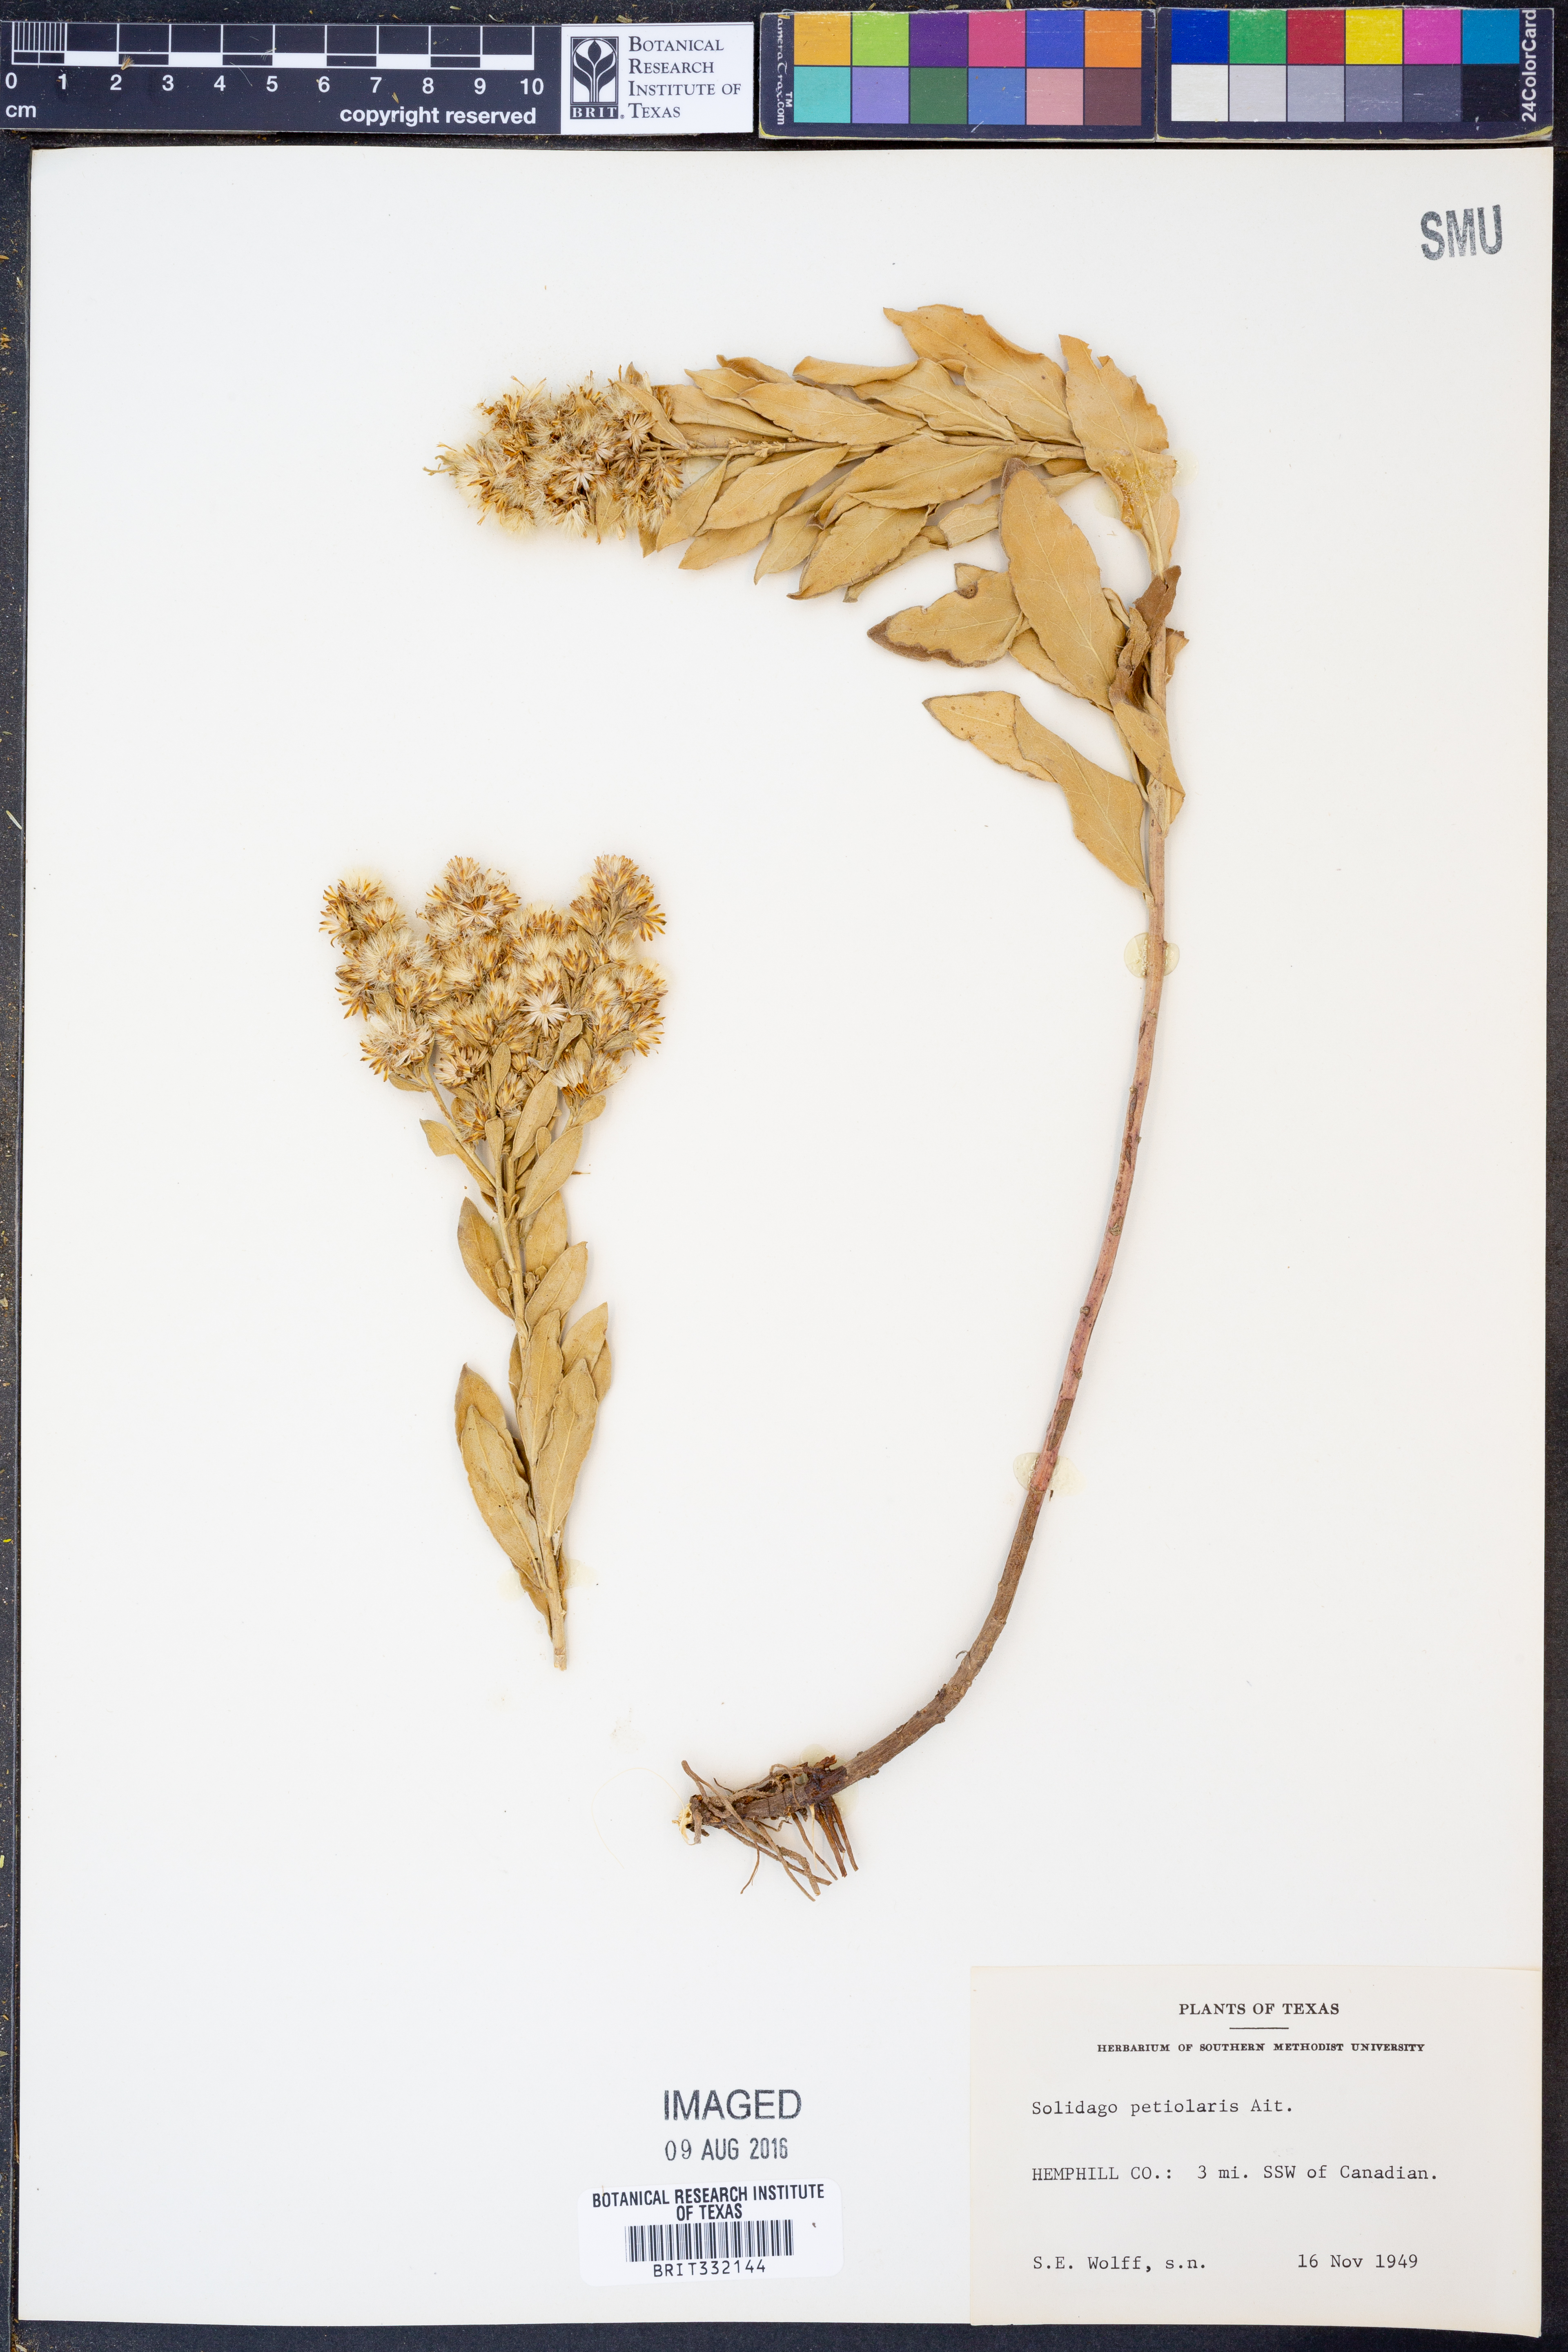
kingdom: Plantae
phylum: Tracheophyta
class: Magnoliopsida
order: Asterales
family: Asteraceae
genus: Solidago
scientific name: Solidago petiolaris
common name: Downy ragged goldenrod
